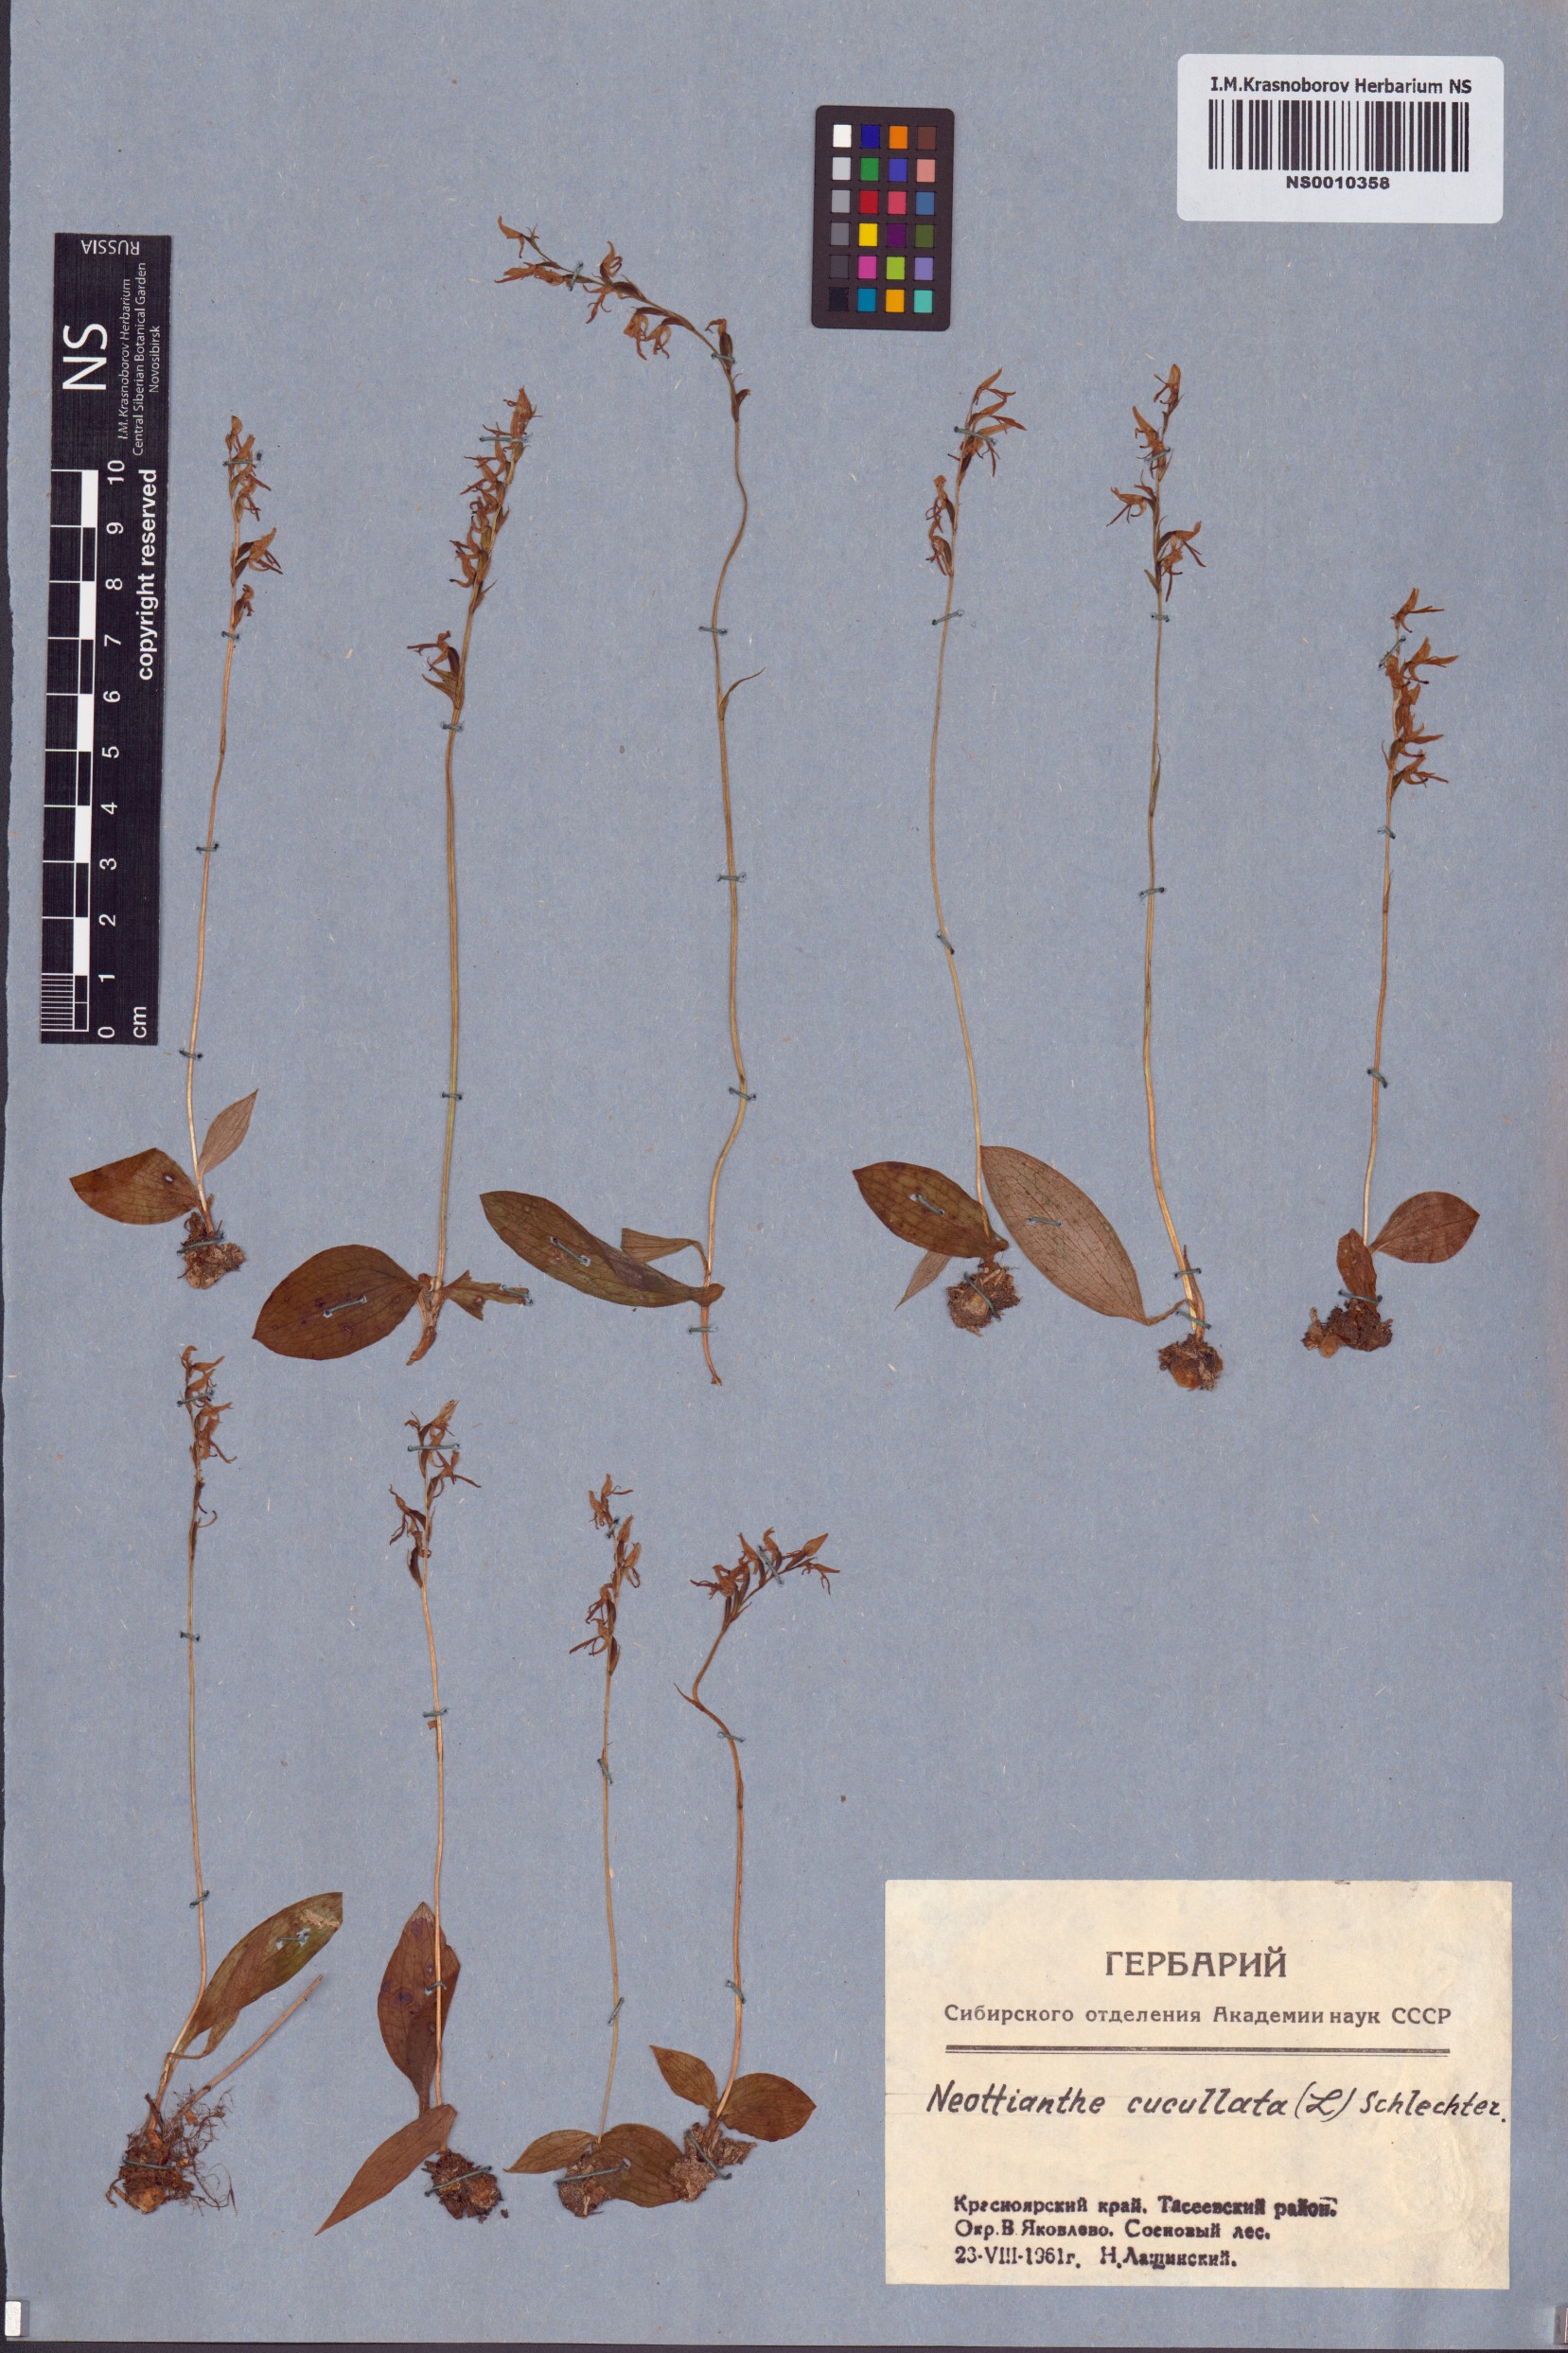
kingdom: Plantae
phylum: Tracheophyta
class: Liliopsida
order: Asparagales
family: Orchidaceae
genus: Hemipilia
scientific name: Hemipilia cucullata
